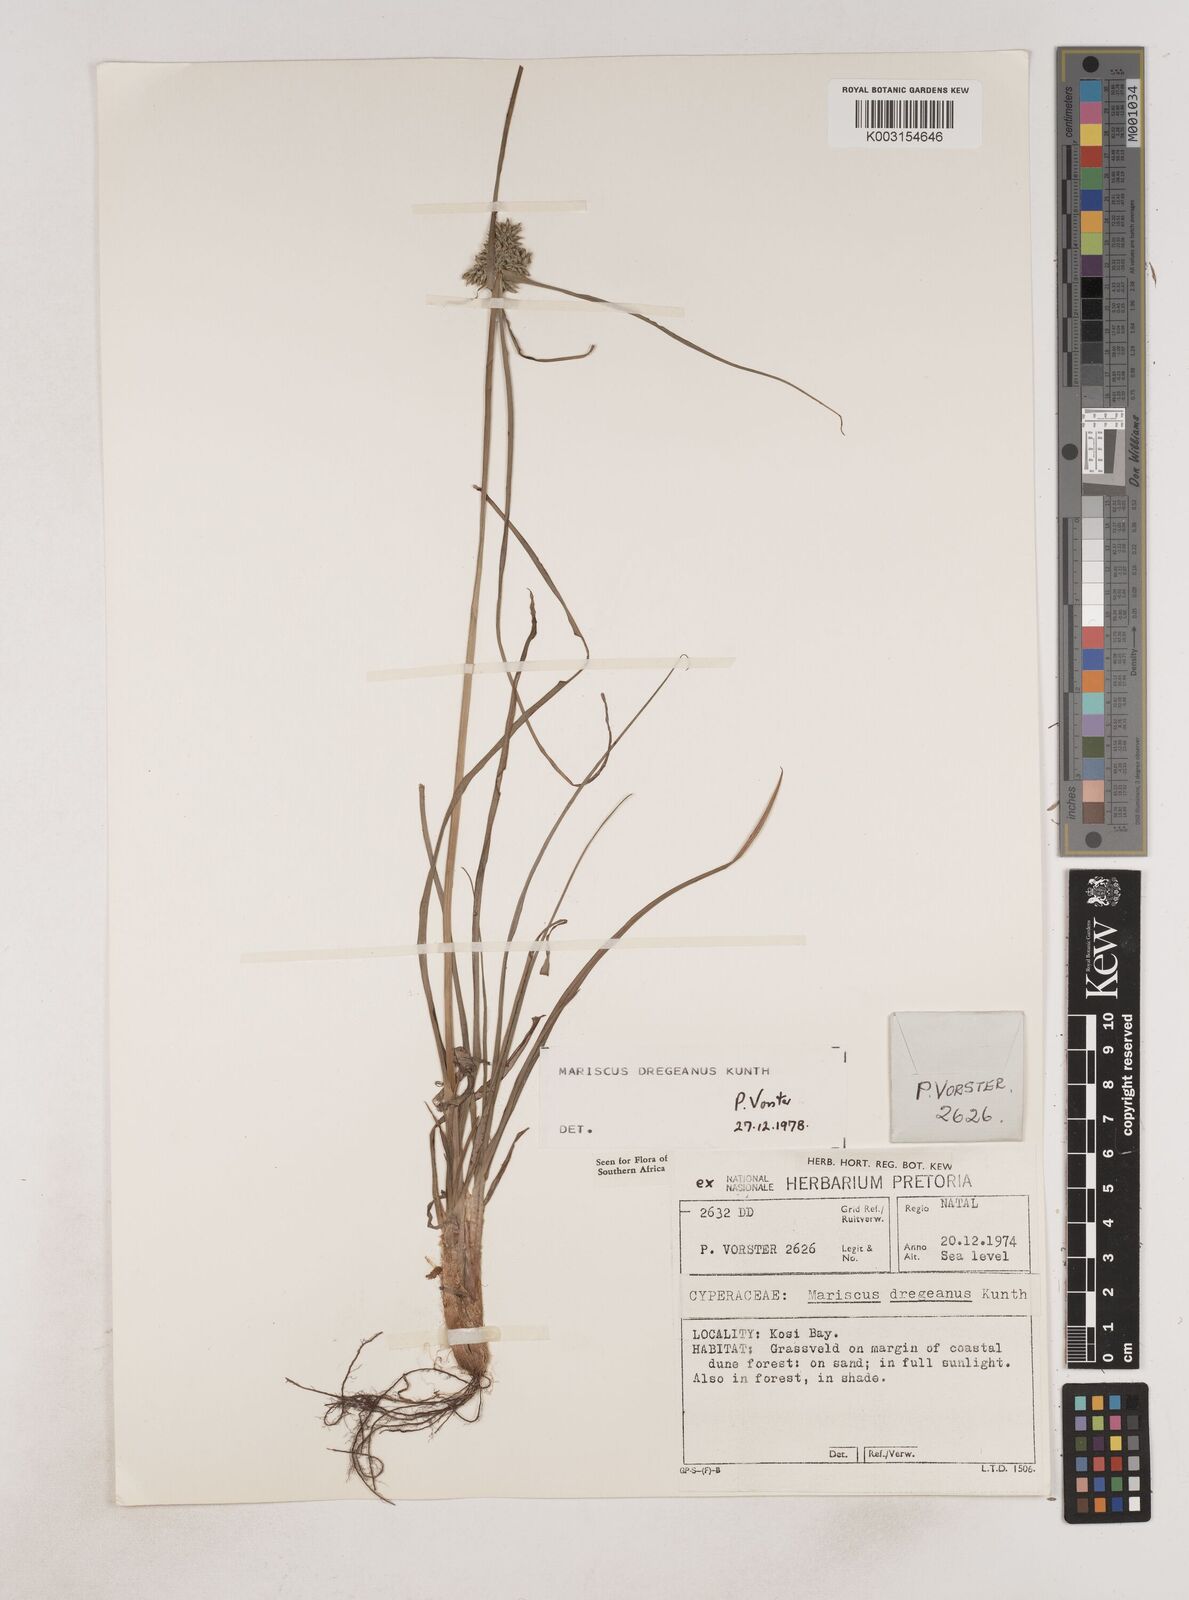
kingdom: Plantae
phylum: Tracheophyta
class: Liliopsida
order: Poales
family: Cyperaceae
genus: Cyperus
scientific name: Cyperus dubius
